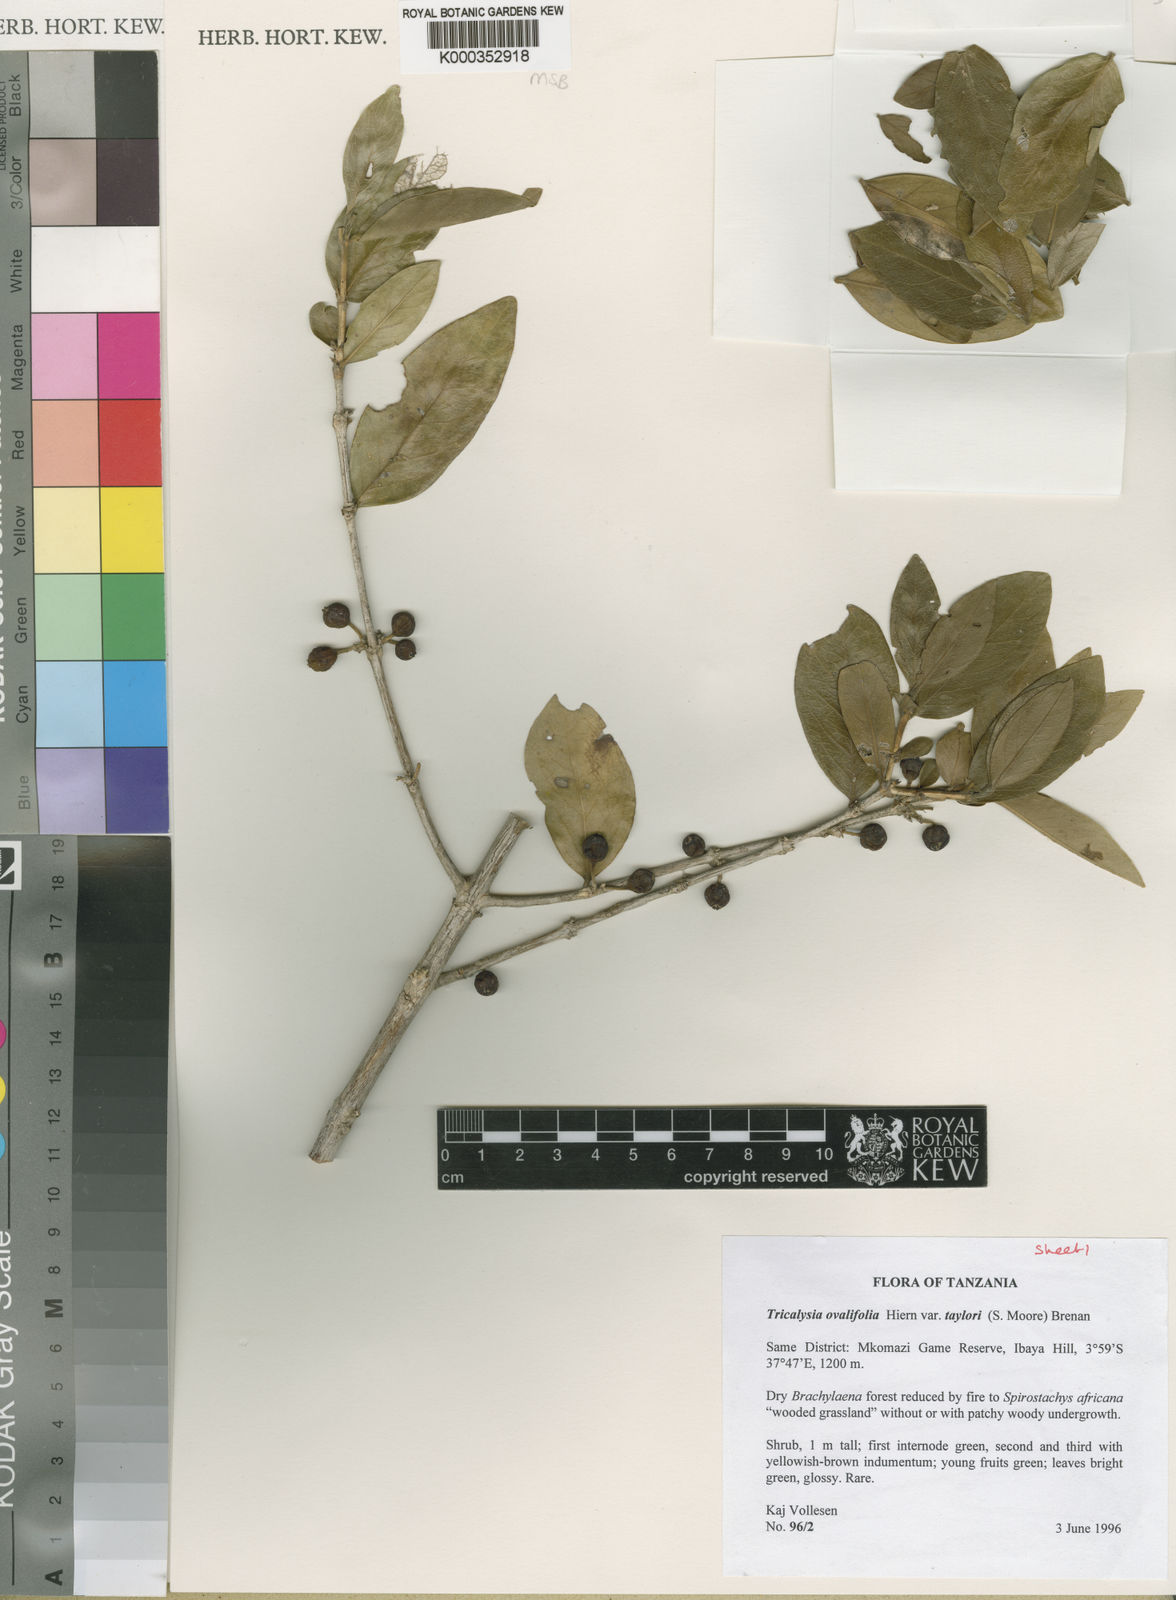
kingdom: Plantae
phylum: Tracheophyta
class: Magnoliopsida
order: Gentianales
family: Rubiaceae
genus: Empogona
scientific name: Empogona ovalifolia
